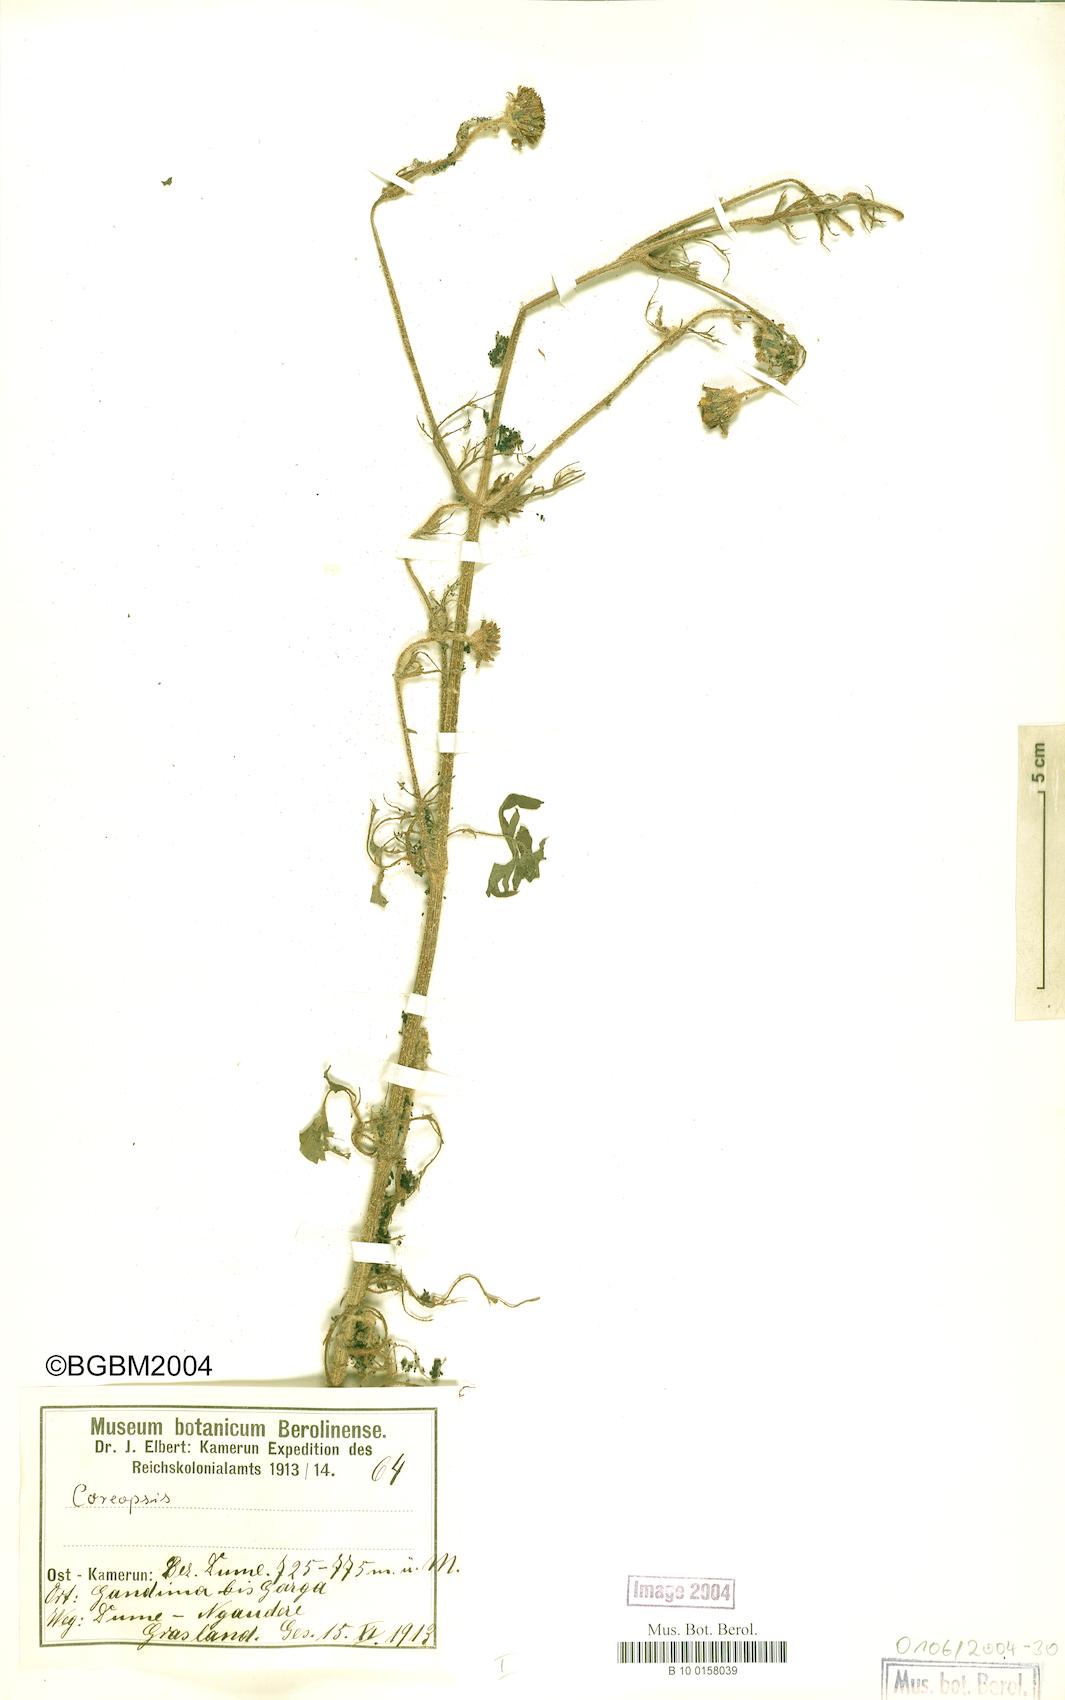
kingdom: Plantae
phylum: Tracheophyta
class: Magnoliopsida
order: Asterales
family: Asteraceae
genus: Coreopsis
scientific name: Coreopsis
